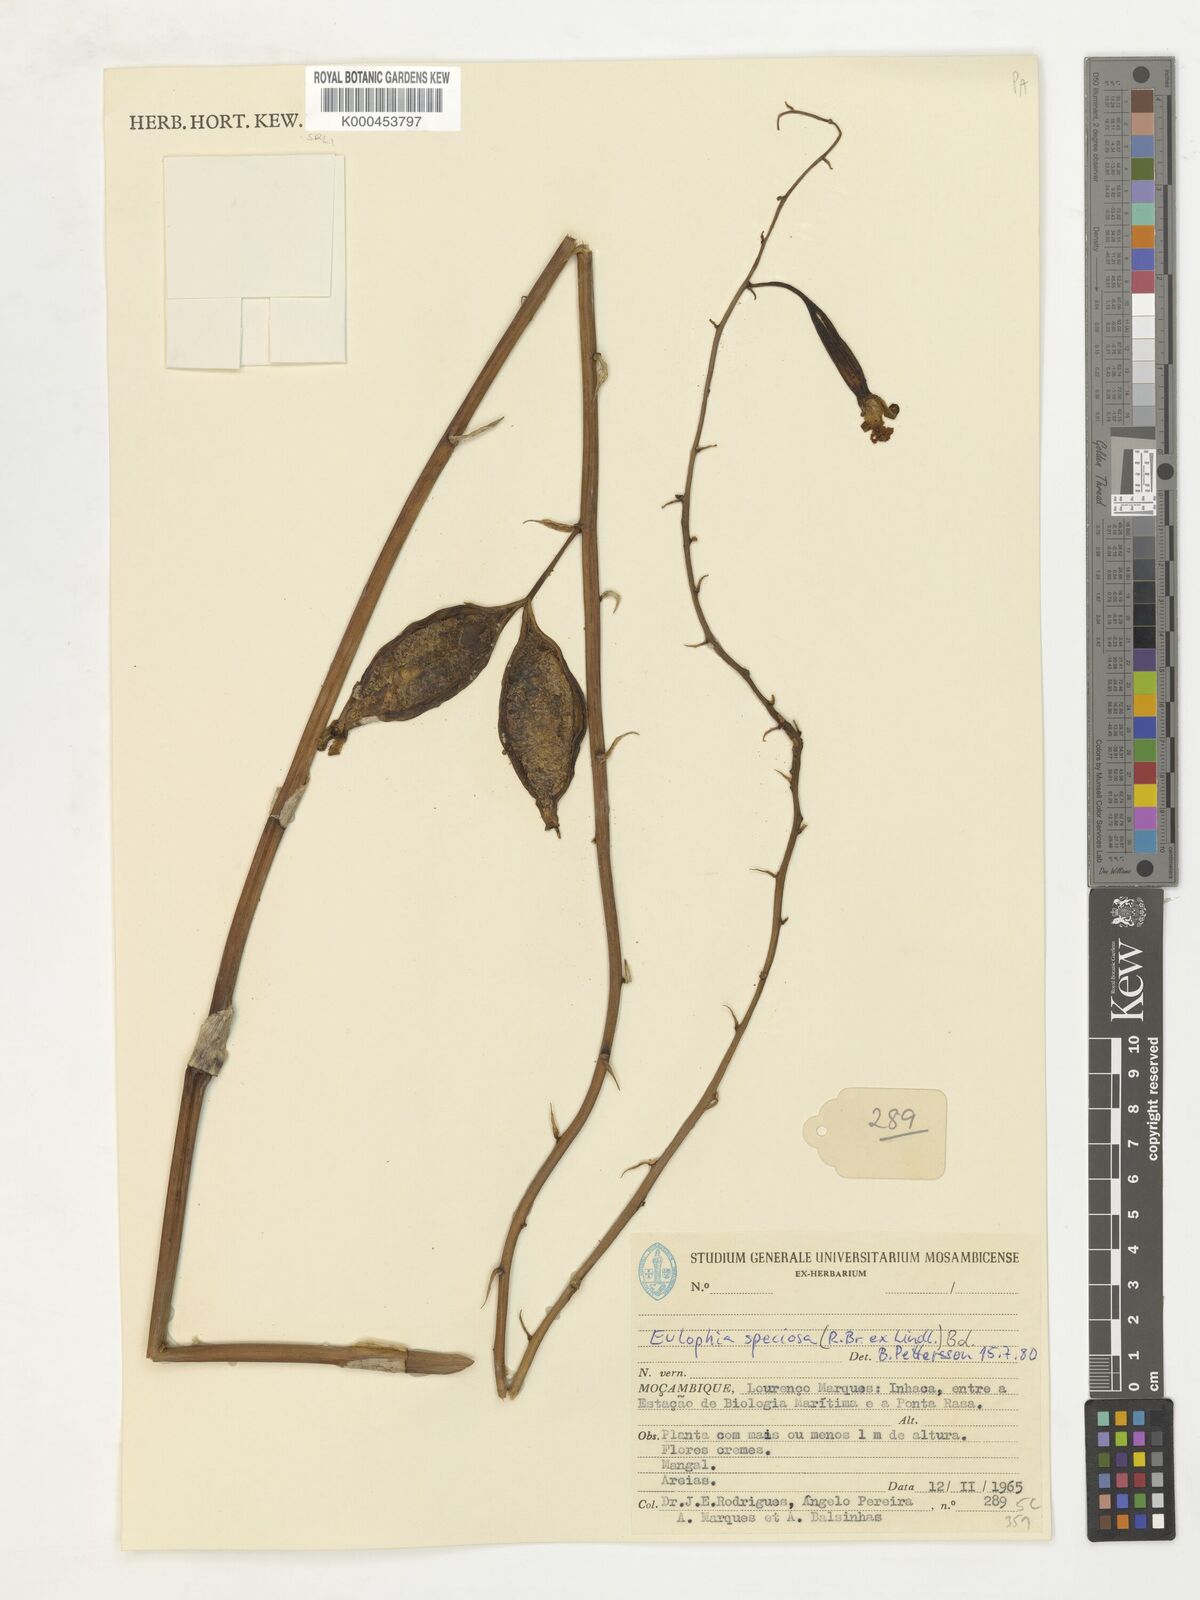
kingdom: Plantae
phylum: Tracheophyta
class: Liliopsida
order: Asparagales
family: Orchidaceae
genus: Eulophia
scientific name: Eulophia speciosa
